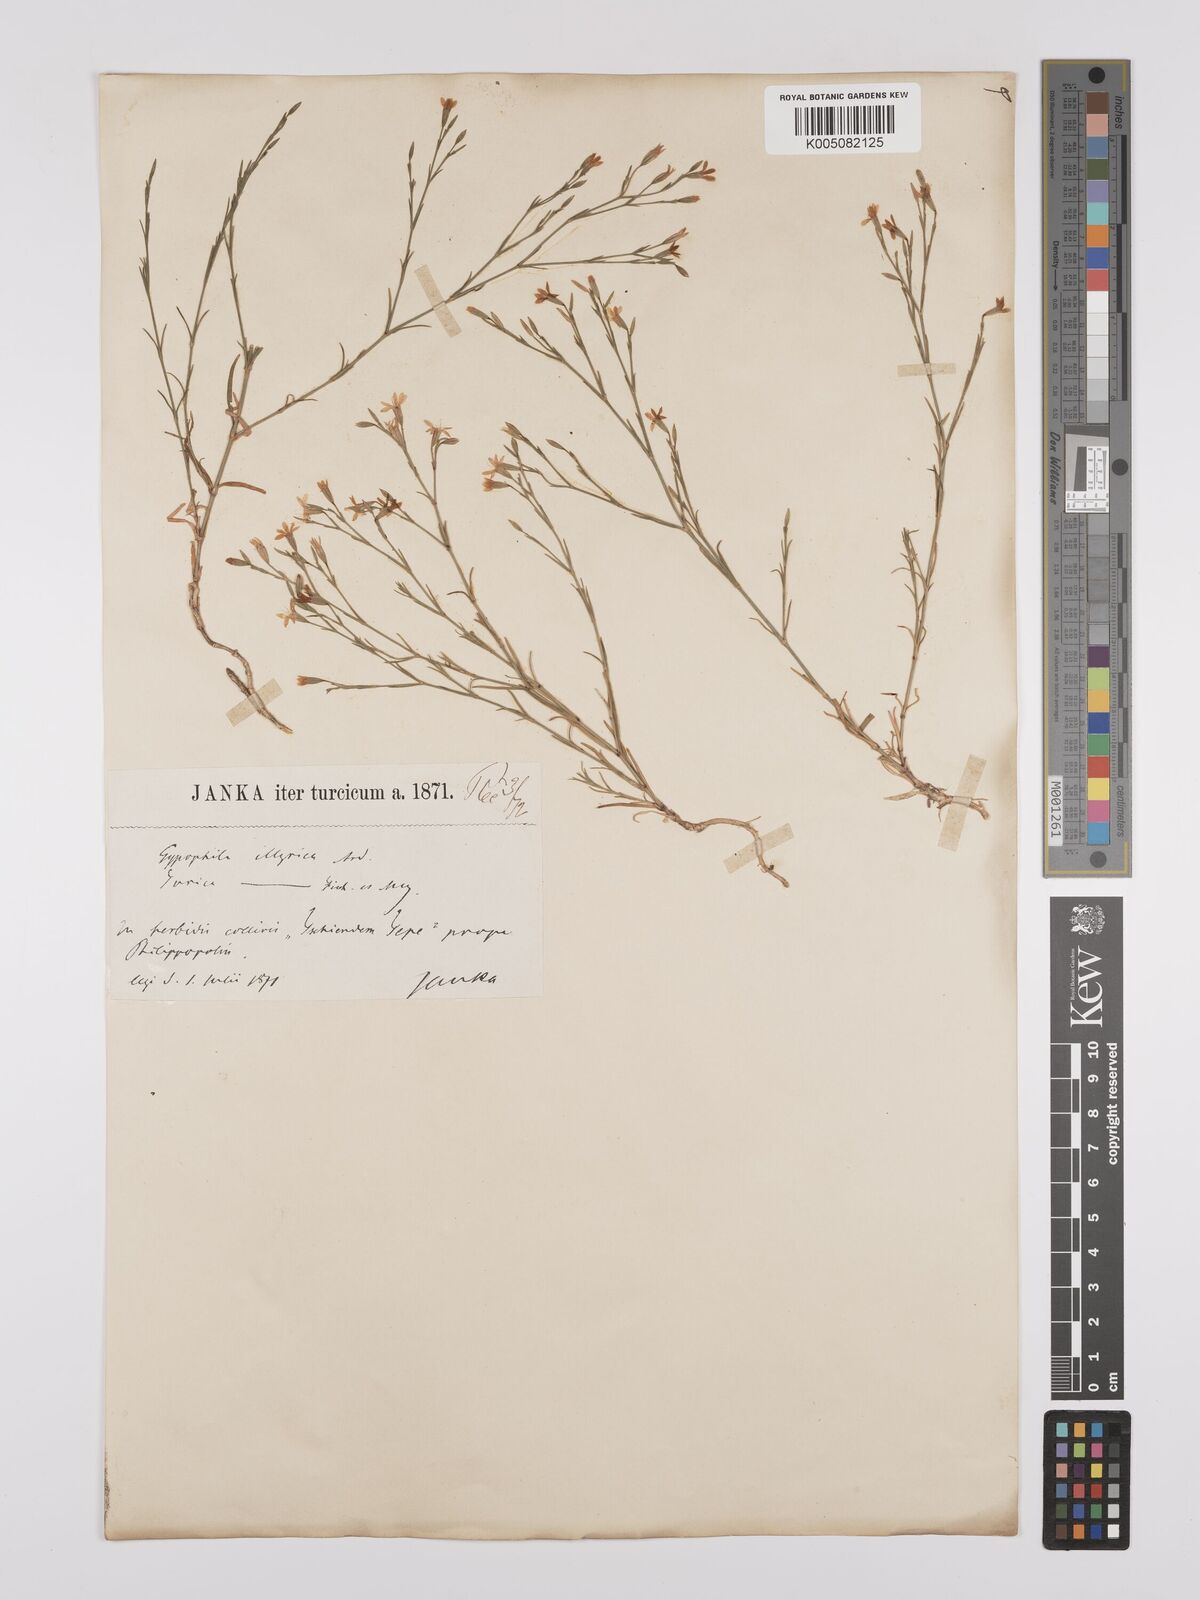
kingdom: Plantae
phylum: Tracheophyta
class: Magnoliopsida
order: Caryophyllales
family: Caryophyllaceae
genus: Dianthus
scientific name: Dianthus illyricus
